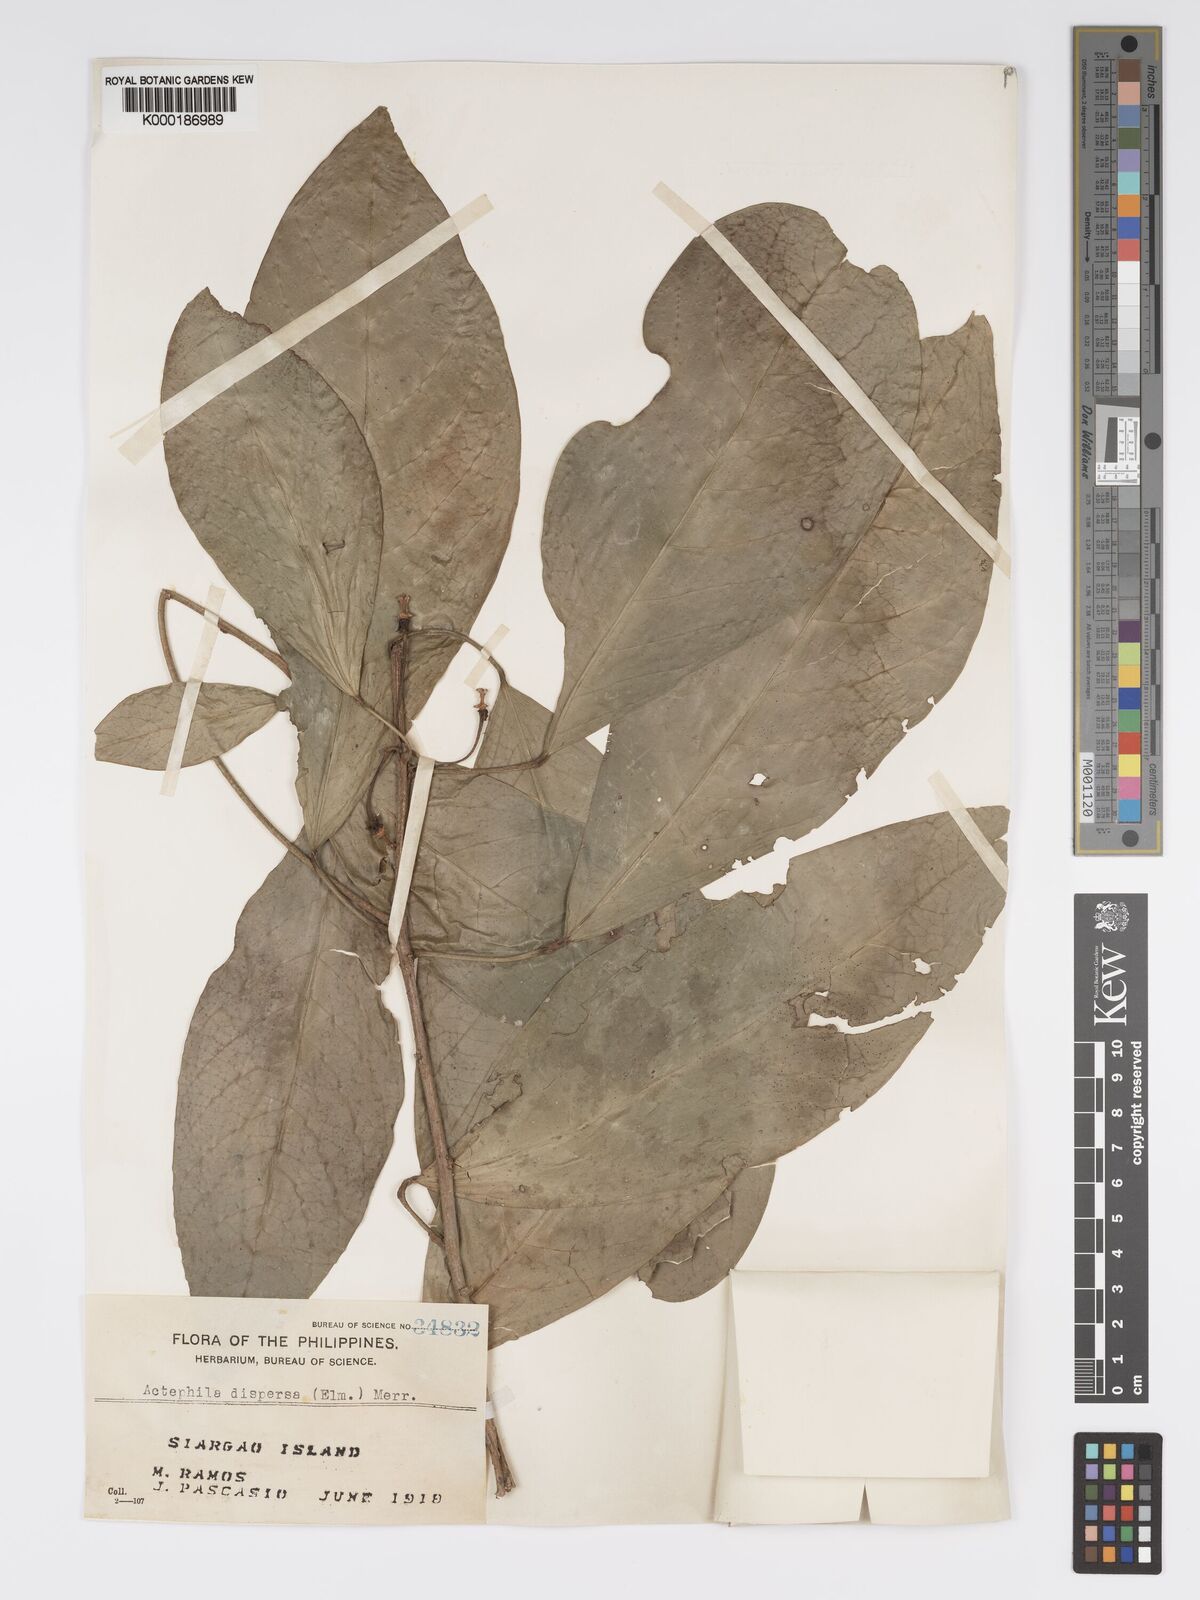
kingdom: Plantae
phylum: Tracheophyta
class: Magnoliopsida
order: Malpighiales
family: Phyllanthaceae
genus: Actephila
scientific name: Actephila
